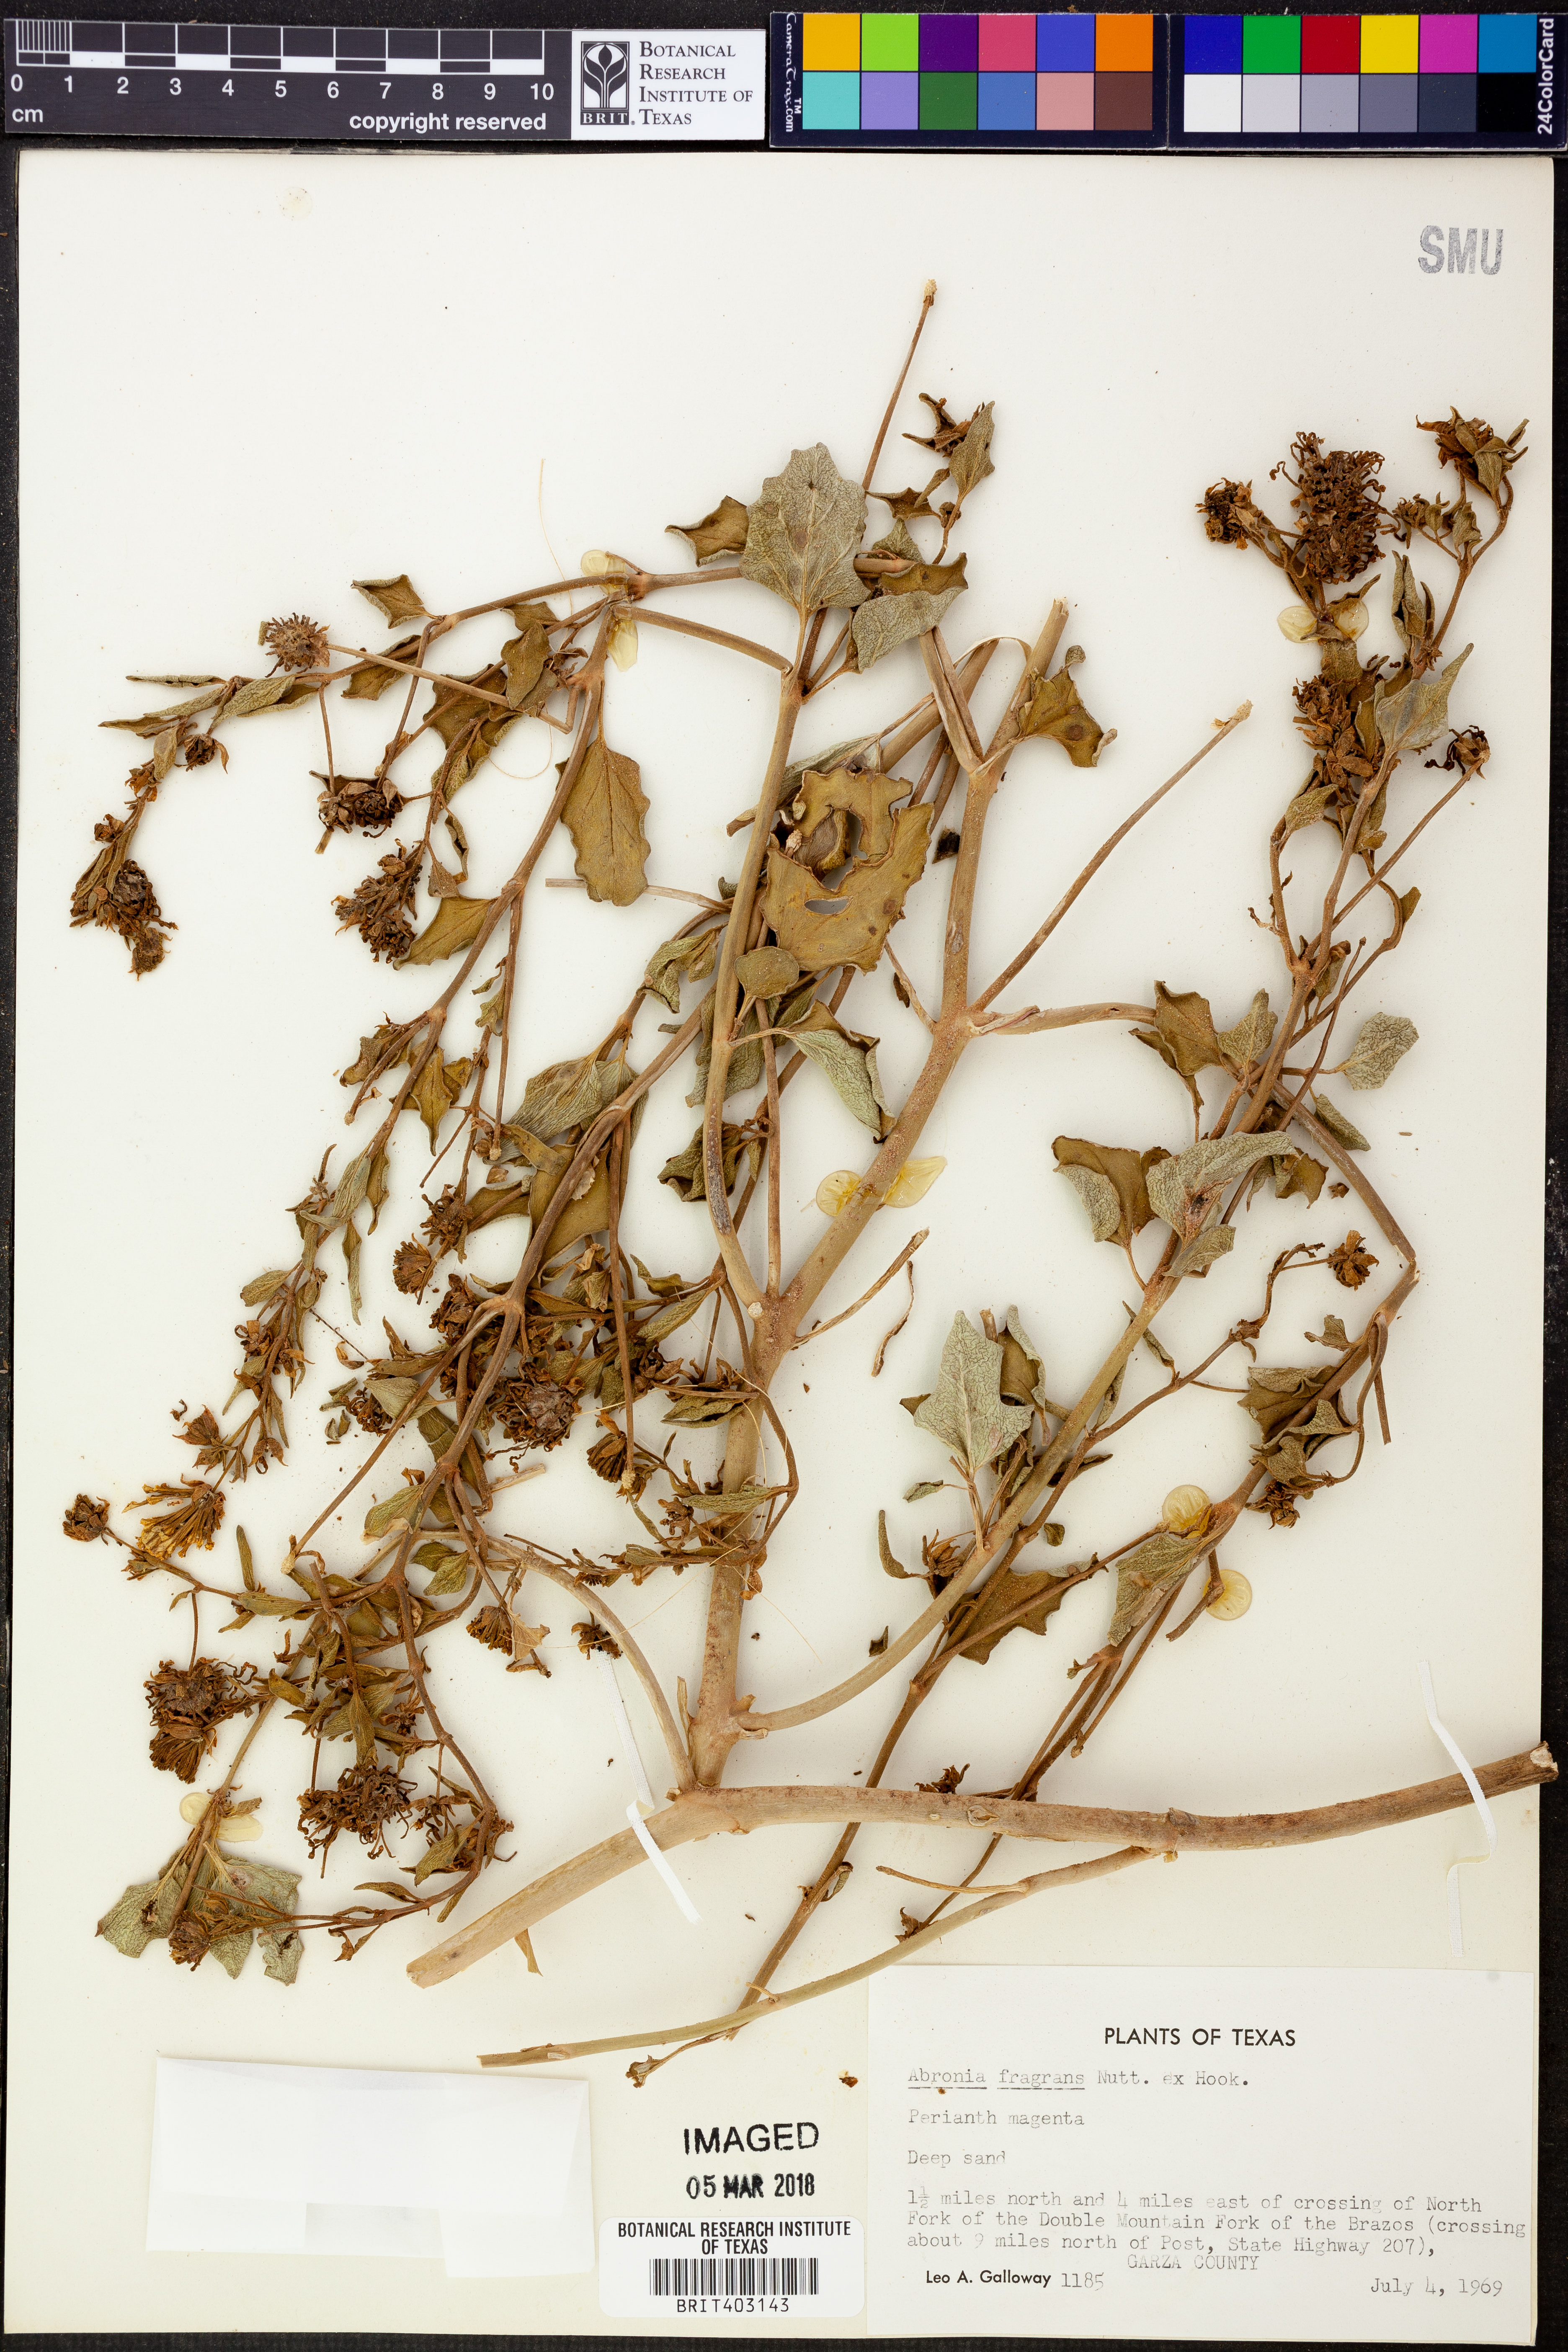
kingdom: Plantae
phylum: Tracheophyta
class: Magnoliopsida
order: Caryophyllales
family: Nyctaginaceae
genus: Abronia
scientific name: Abronia fragrans
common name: Fragrant sand-verbena
